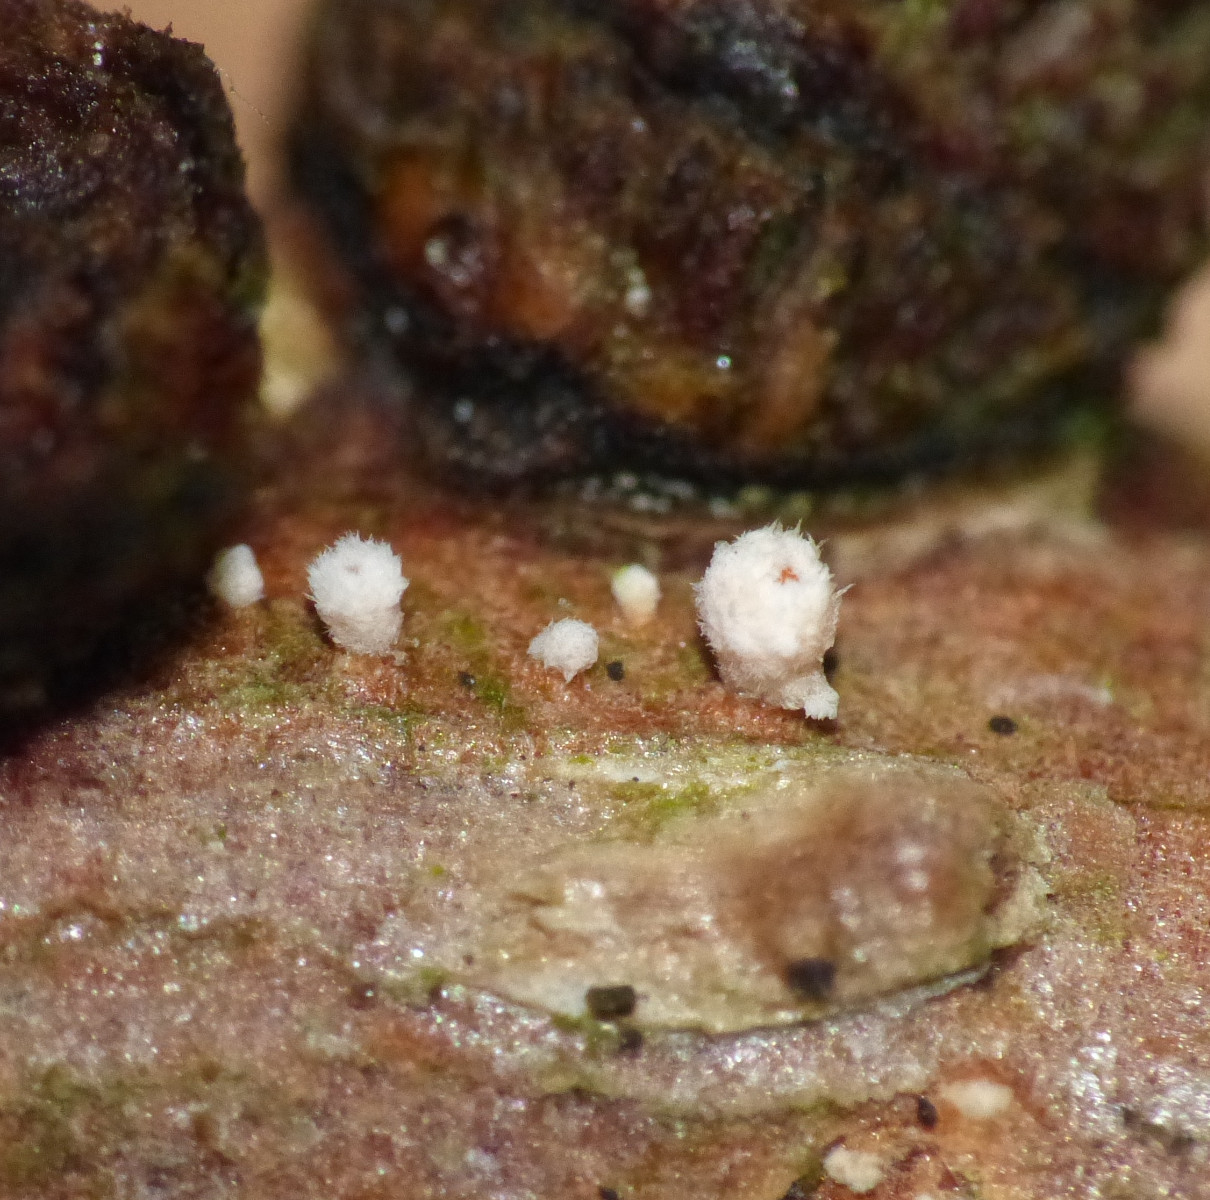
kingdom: Fungi
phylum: Ascomycota
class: Leotiomycetes
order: Helotiales
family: Lachnaceae
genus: Lachnellula
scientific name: Lachnellula
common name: frynseskive
